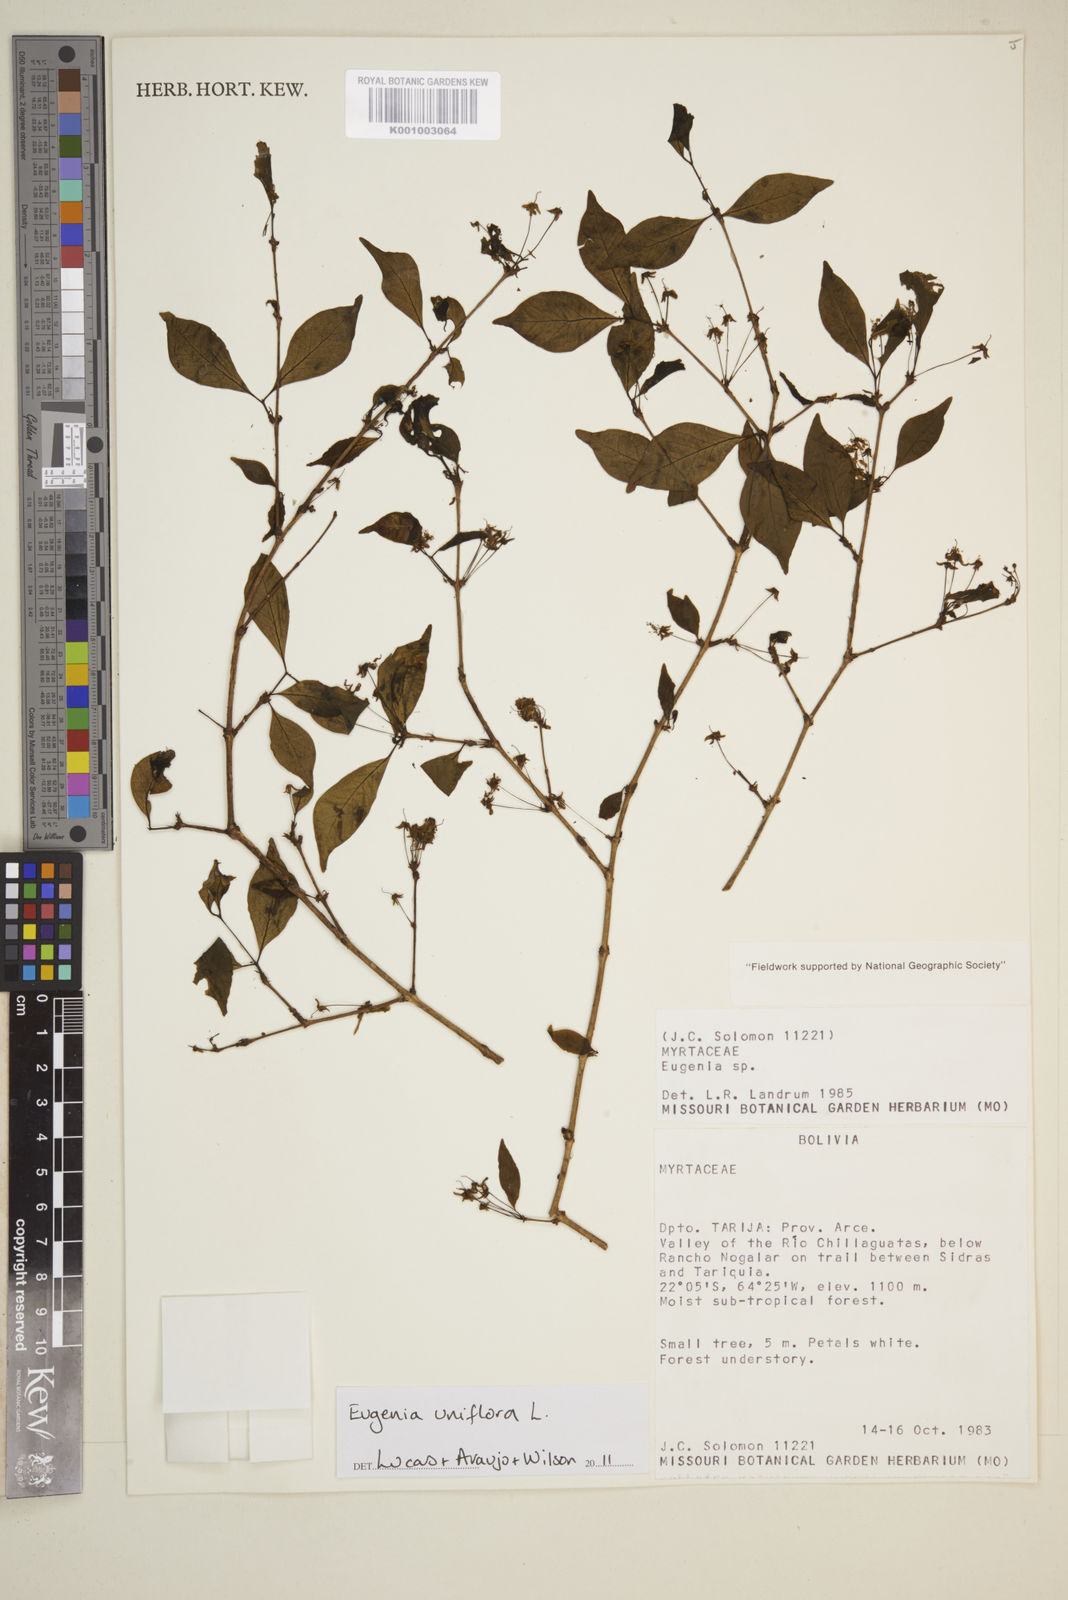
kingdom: Plantae
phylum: Tracheophyta
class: Magnoliopsida
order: Myrtales
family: Myrtaceae
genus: Eugenia
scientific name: Eugenia uniflora
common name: Surinam cherry
